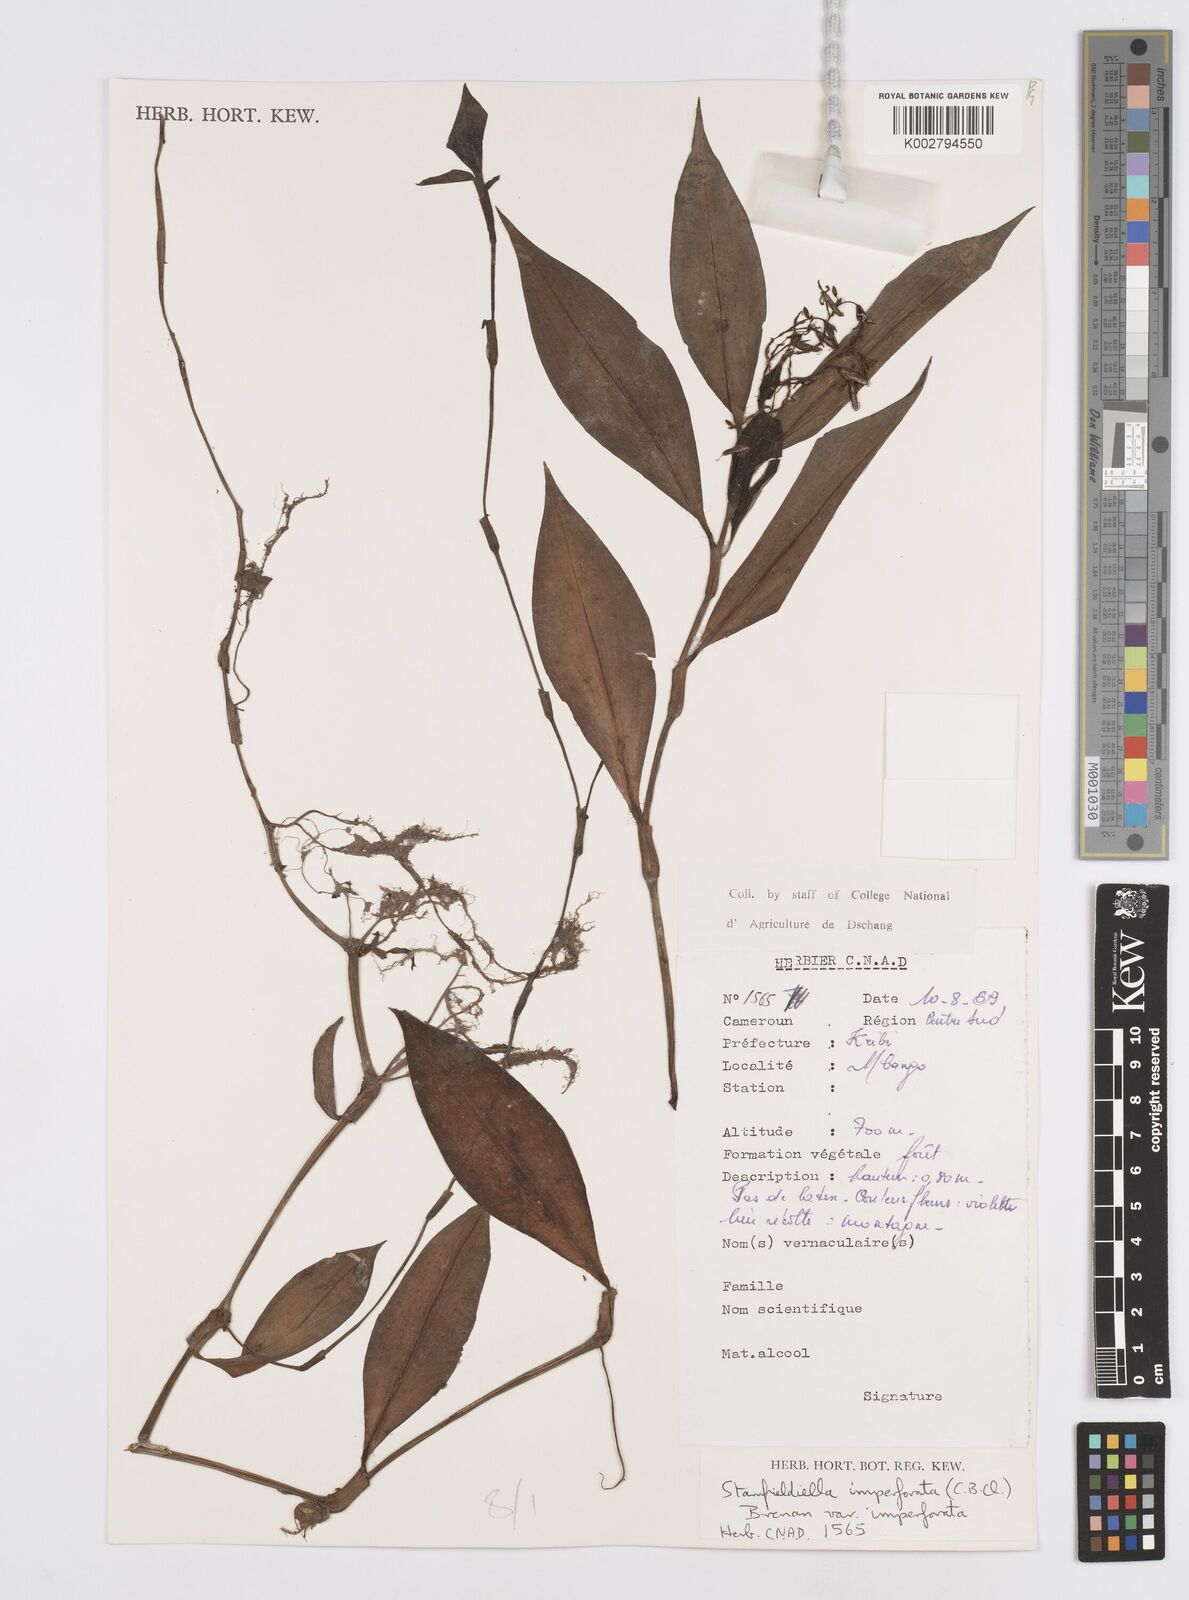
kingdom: Plantae
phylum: Tracheophyta
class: Liliopsida
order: Commelinales
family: Commelinaceae
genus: Stanfieldiella
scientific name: Stanfieldiella imperforata
